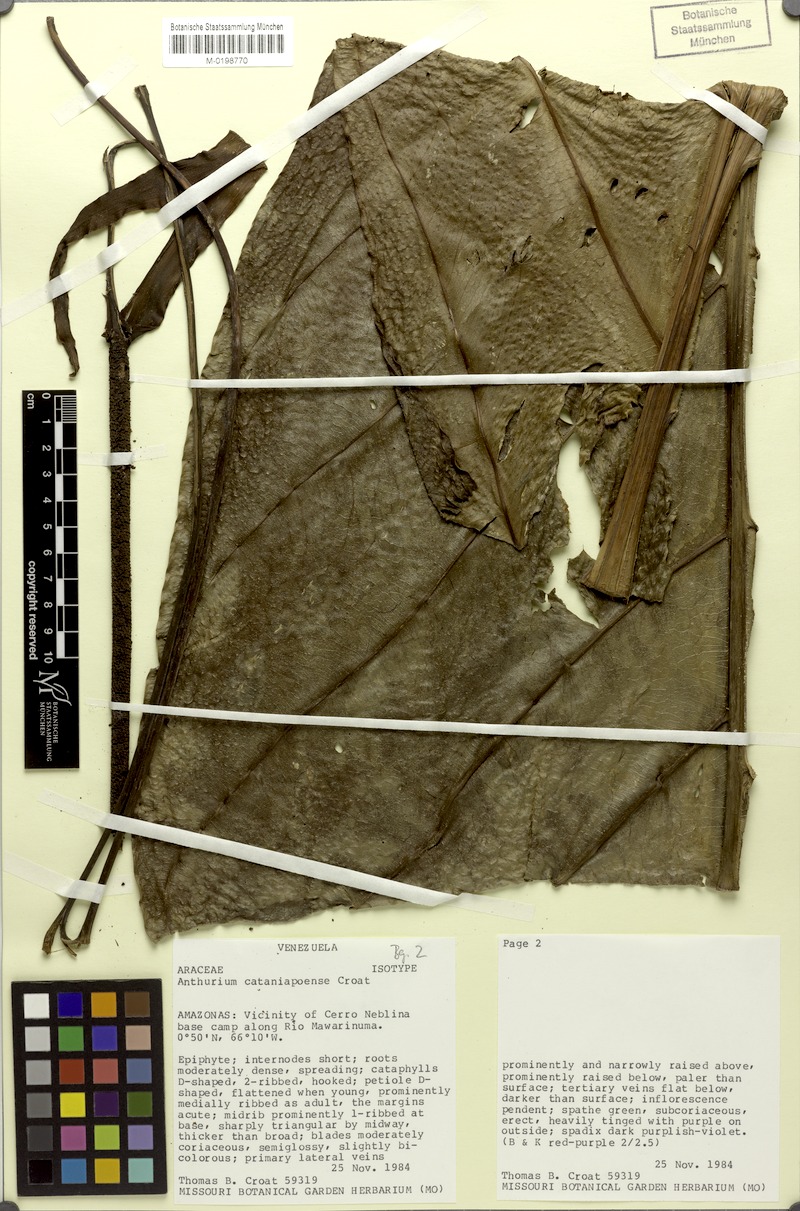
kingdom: Plantae
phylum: Tracheophyta
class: Liliopsida
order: Alismatales
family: Araceae
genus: Anthurium
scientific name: Anthurium cataniapoense
